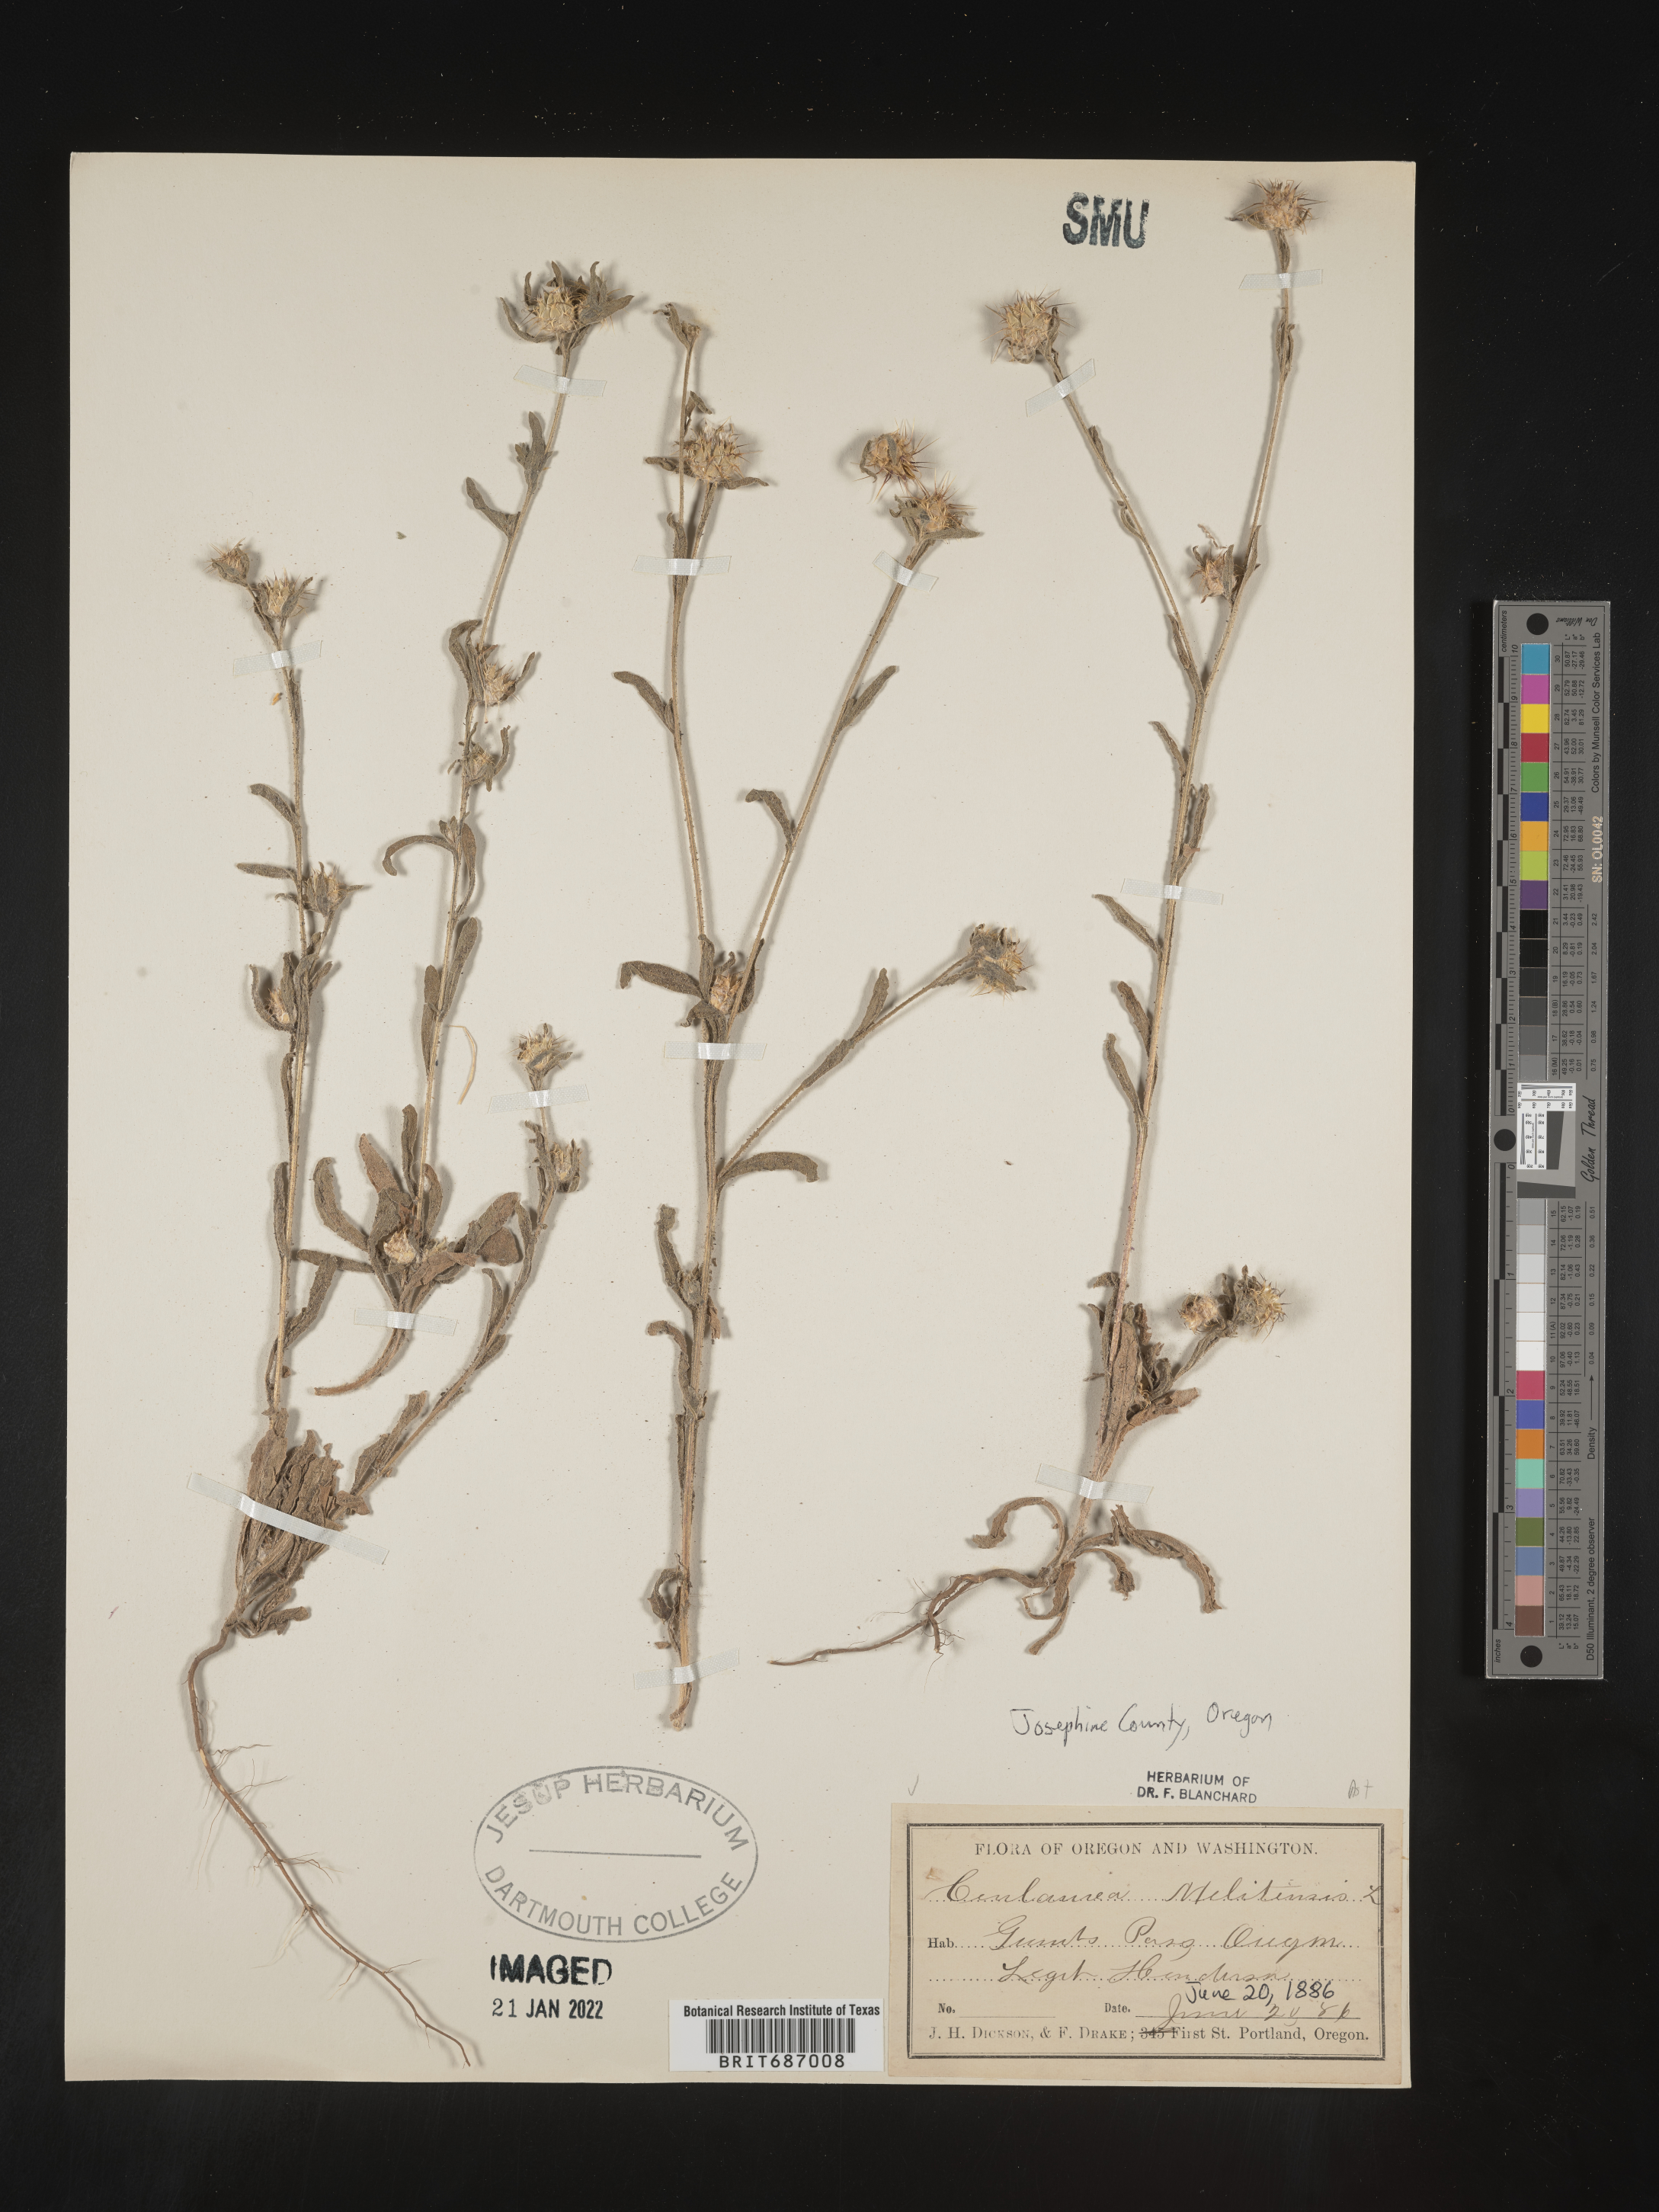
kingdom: Plantae
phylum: Tracheophyta
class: Magnoliopsida
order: Asterales
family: Asteraceae
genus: Centaurea
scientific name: Centaurea melitensis
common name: Maltese star-thistle
